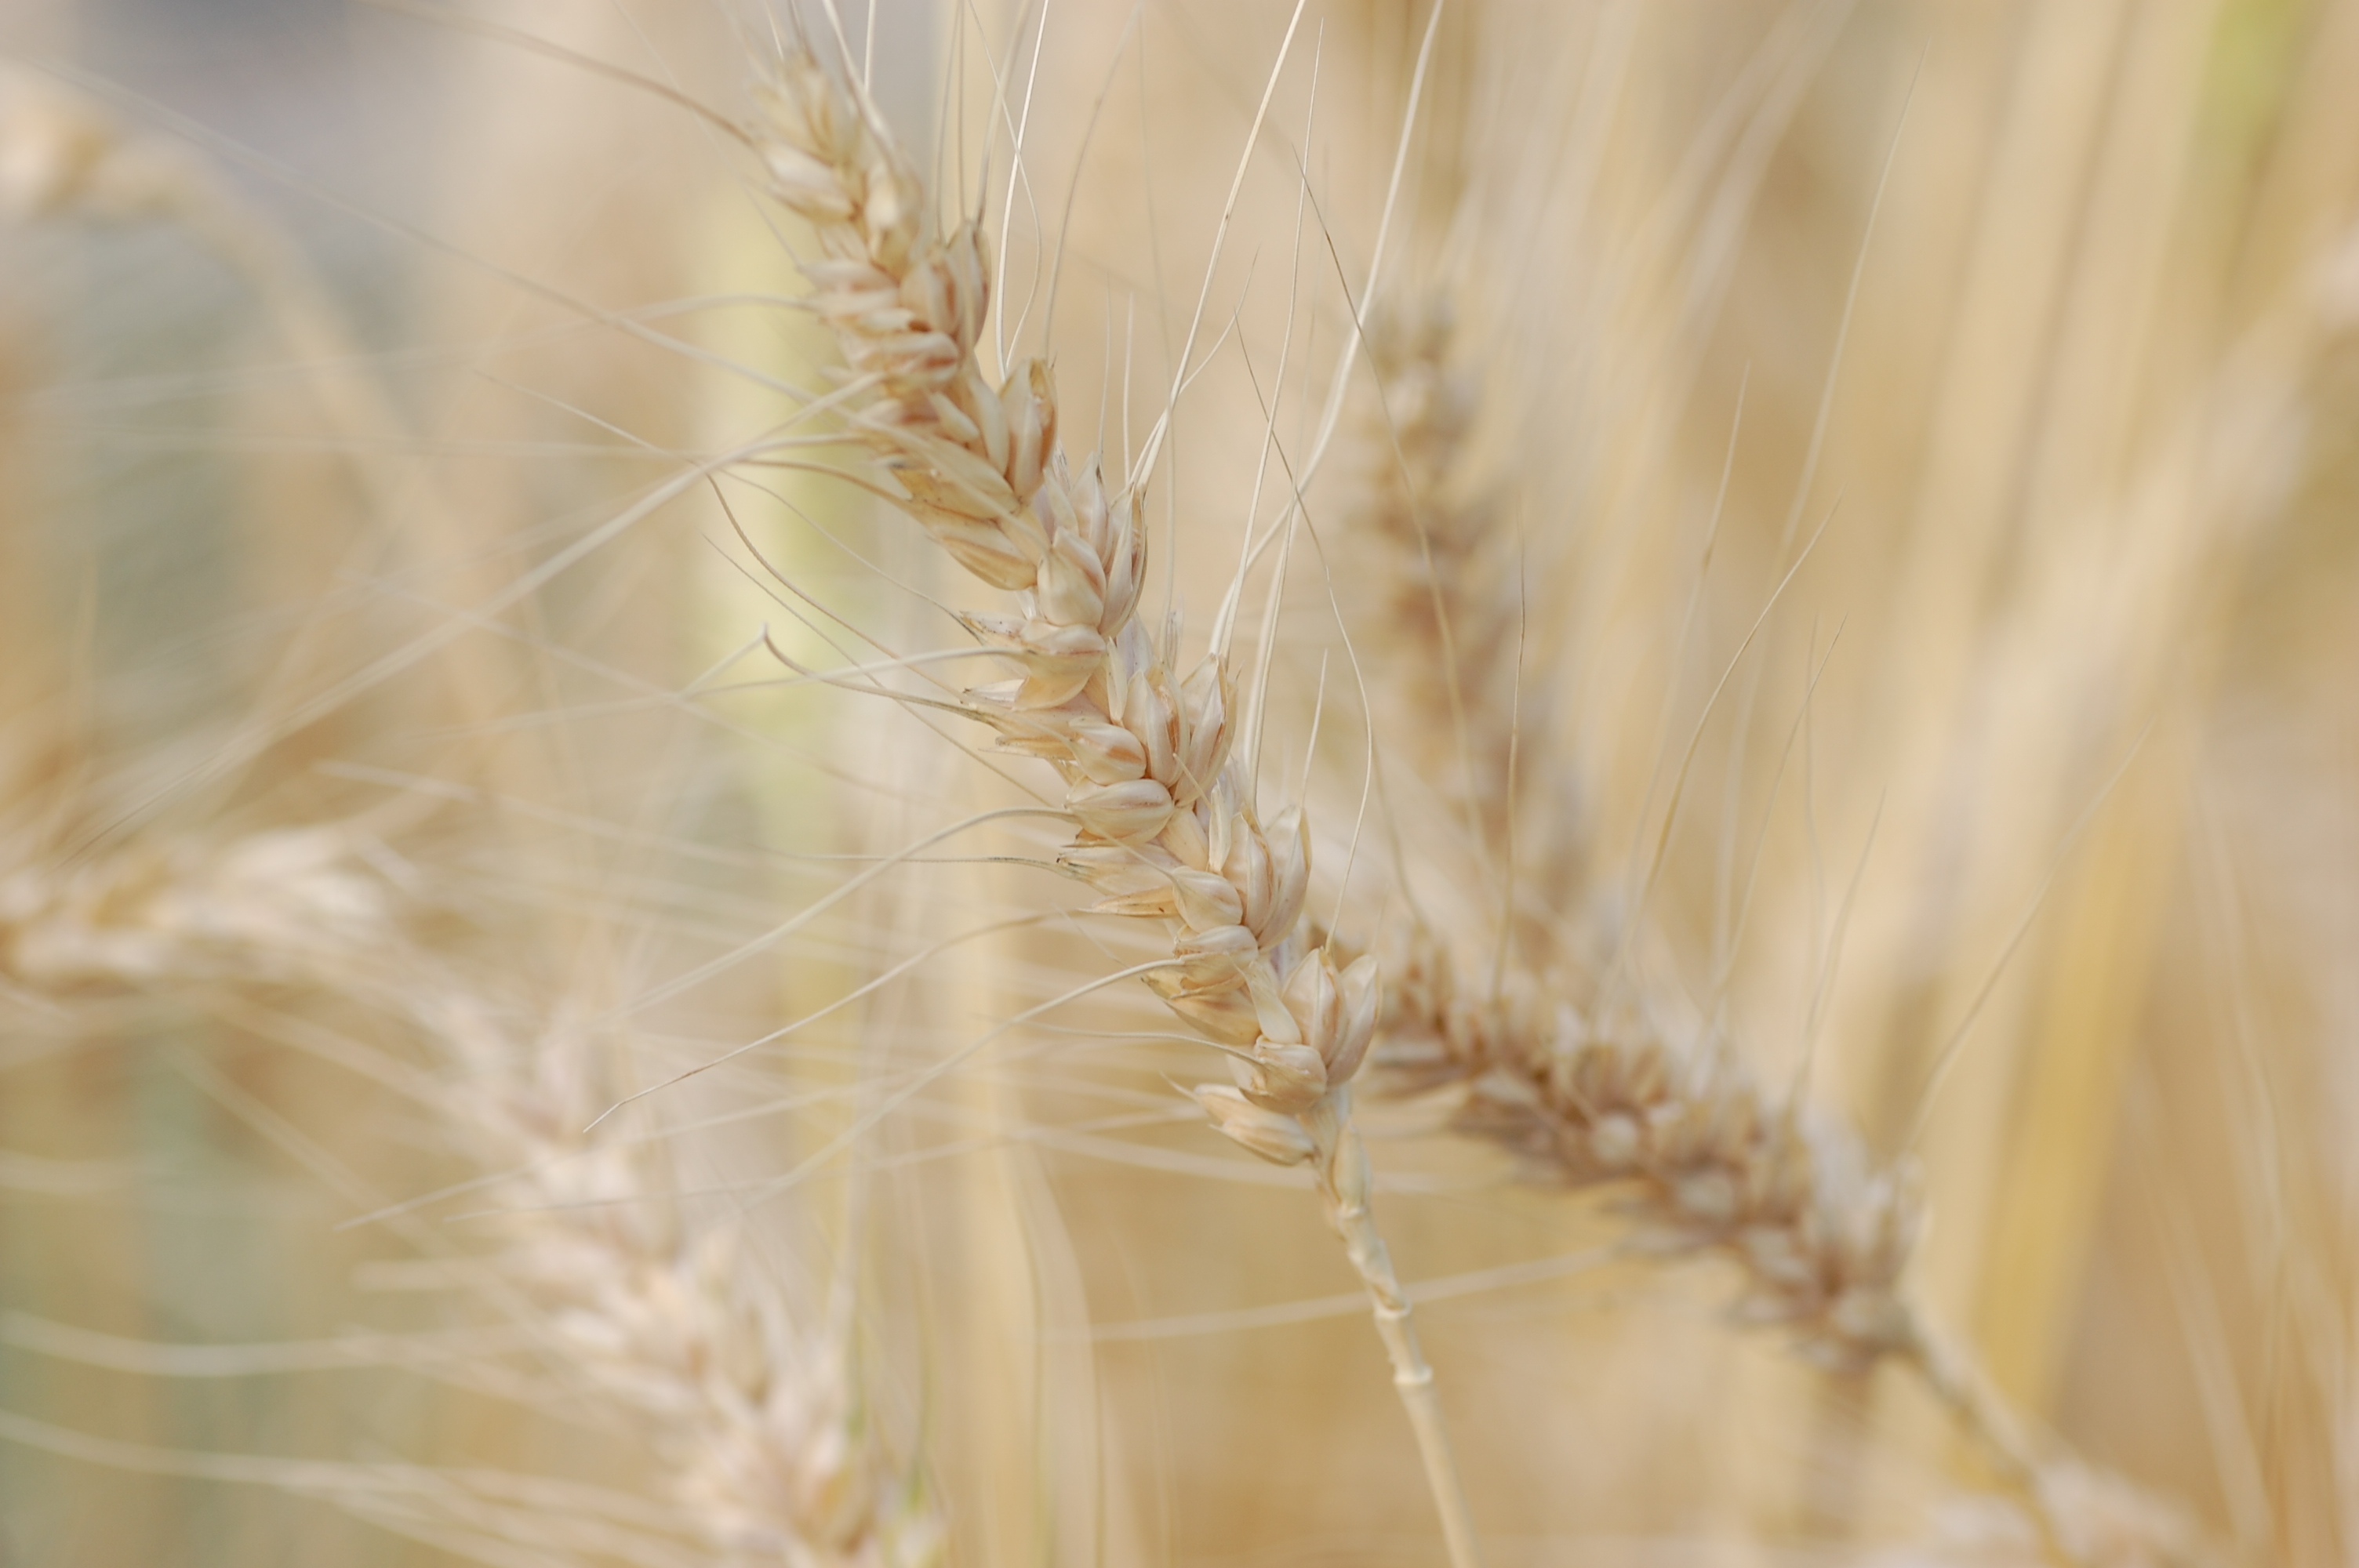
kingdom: Plantae
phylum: Tracheophyta
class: Liliopsida
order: Poales
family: Poaceae
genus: Triticum
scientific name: Triticum aestivum
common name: Common wheat
